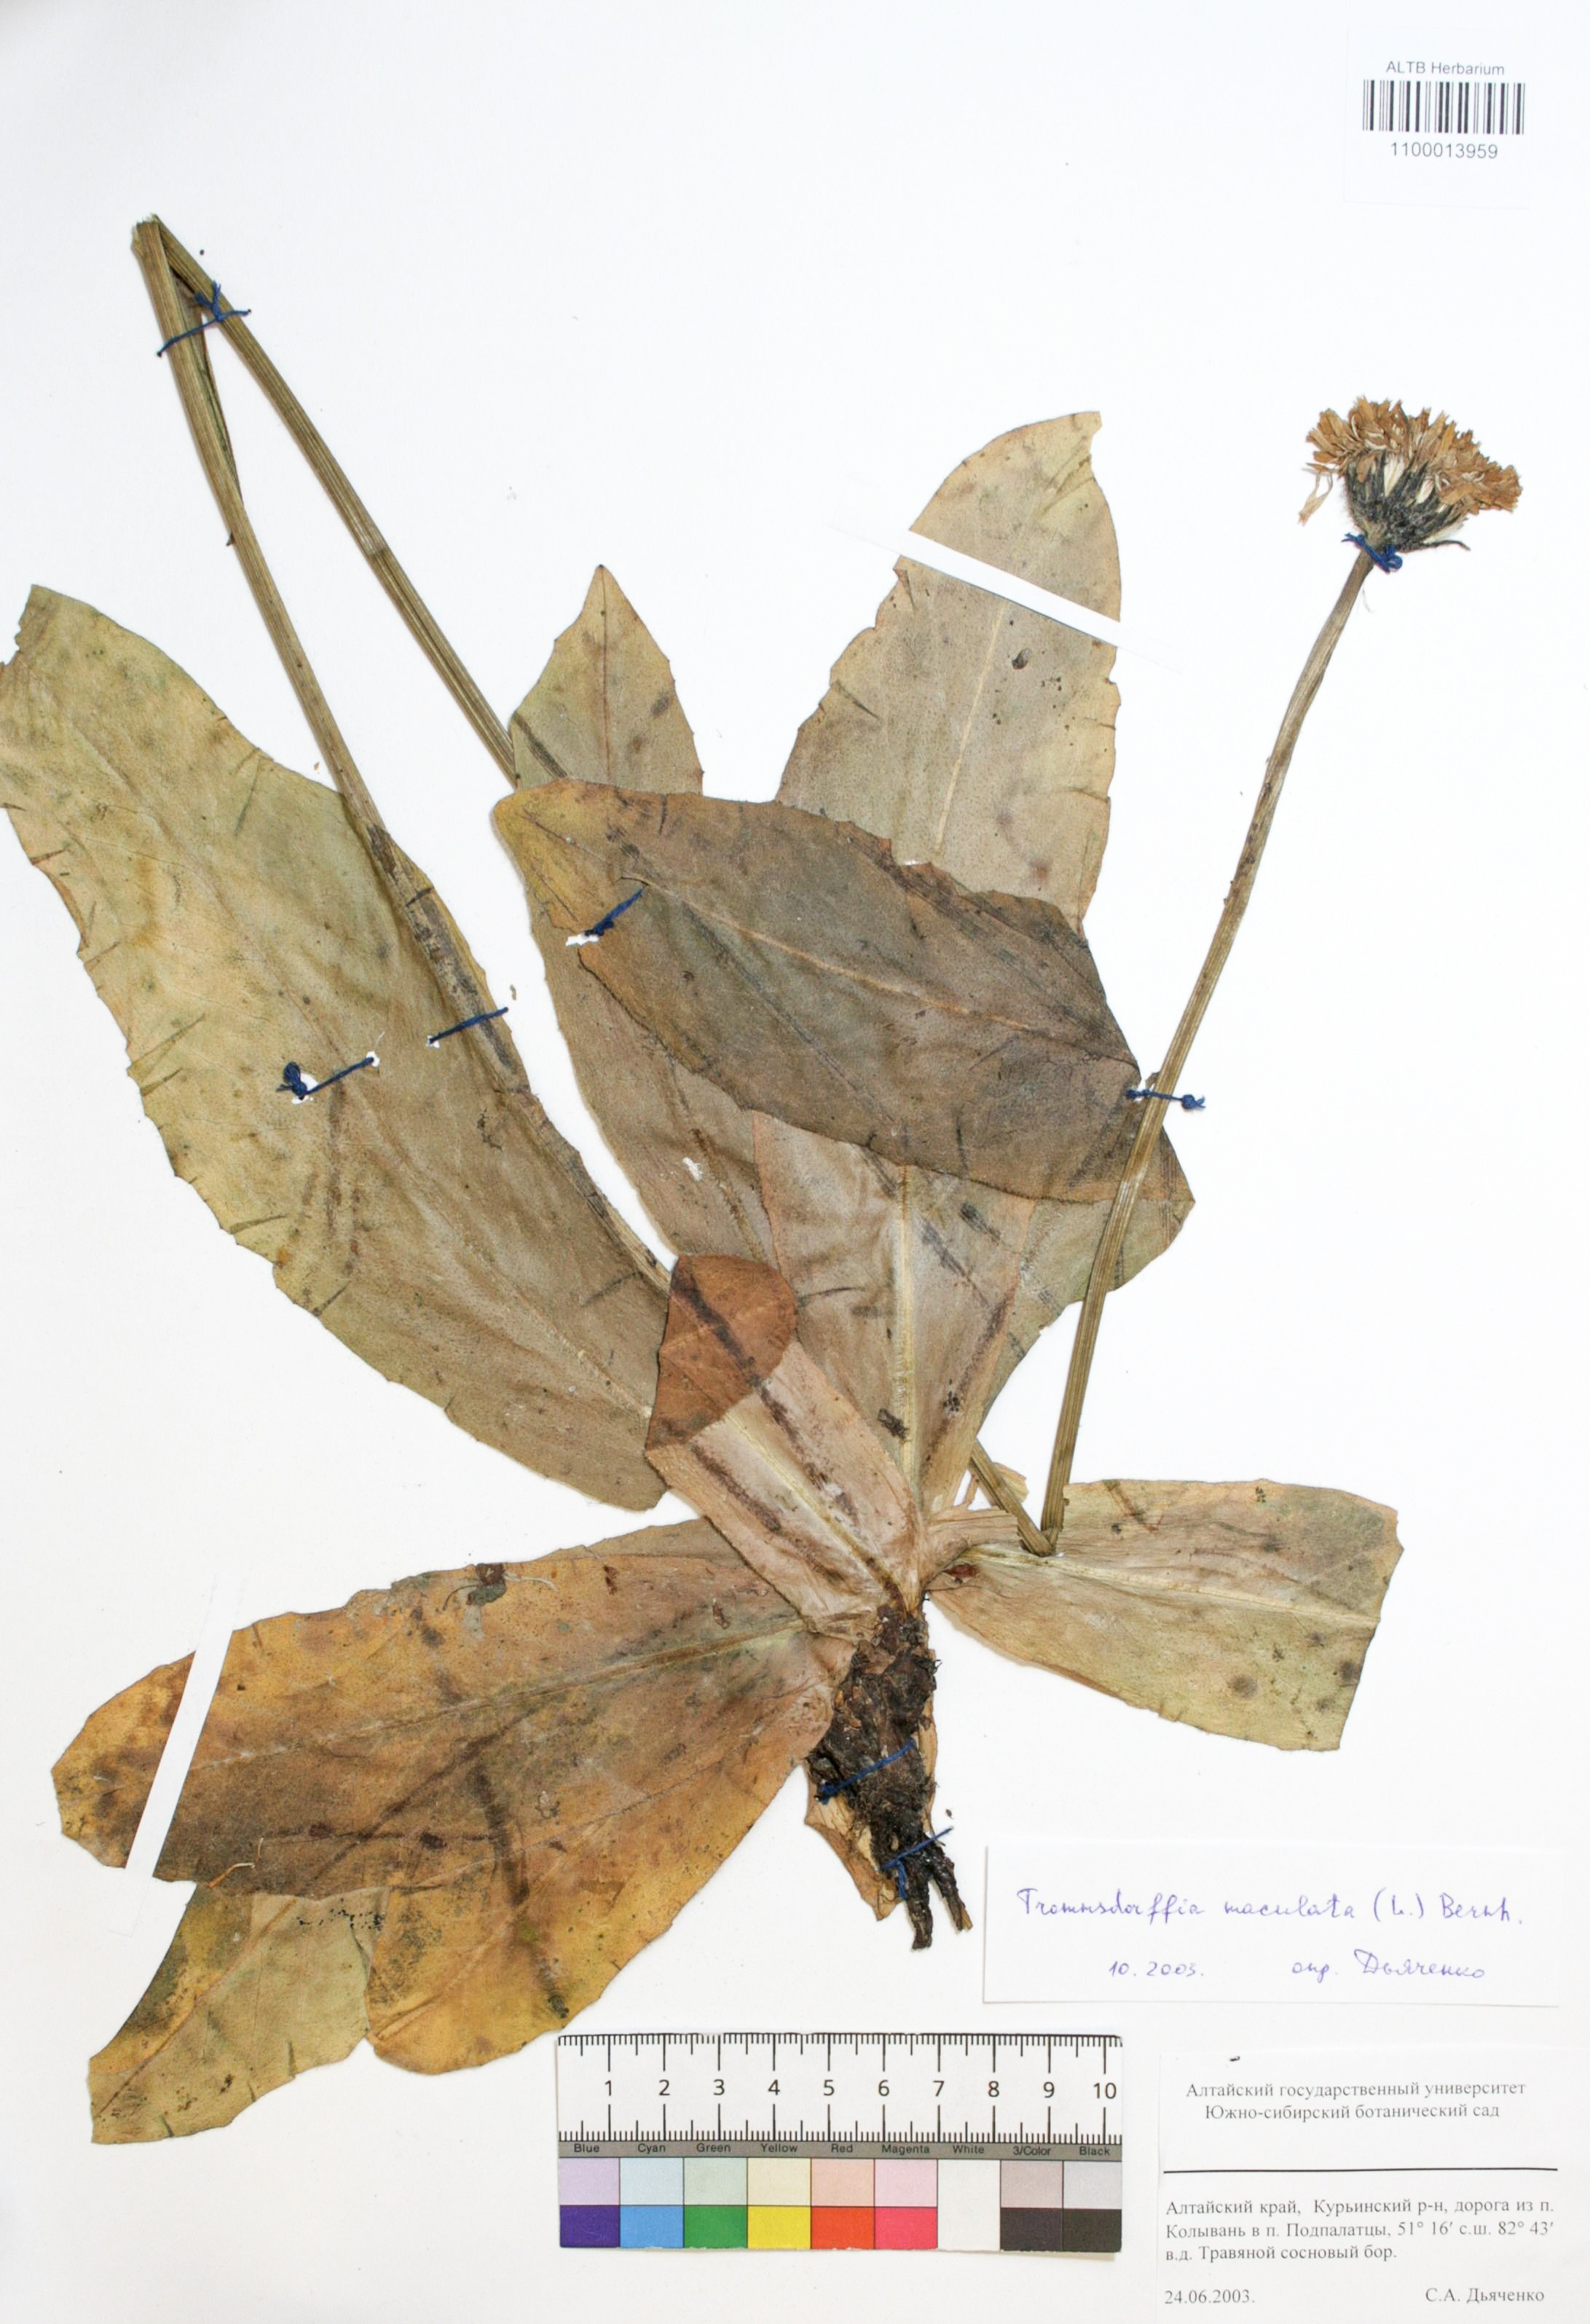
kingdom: Plantae
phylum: Tracheophyta
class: Magnoliopsida
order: Asterales
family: Asteraceae
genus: Trommsdorffia
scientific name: Trommsdorffia maculata
